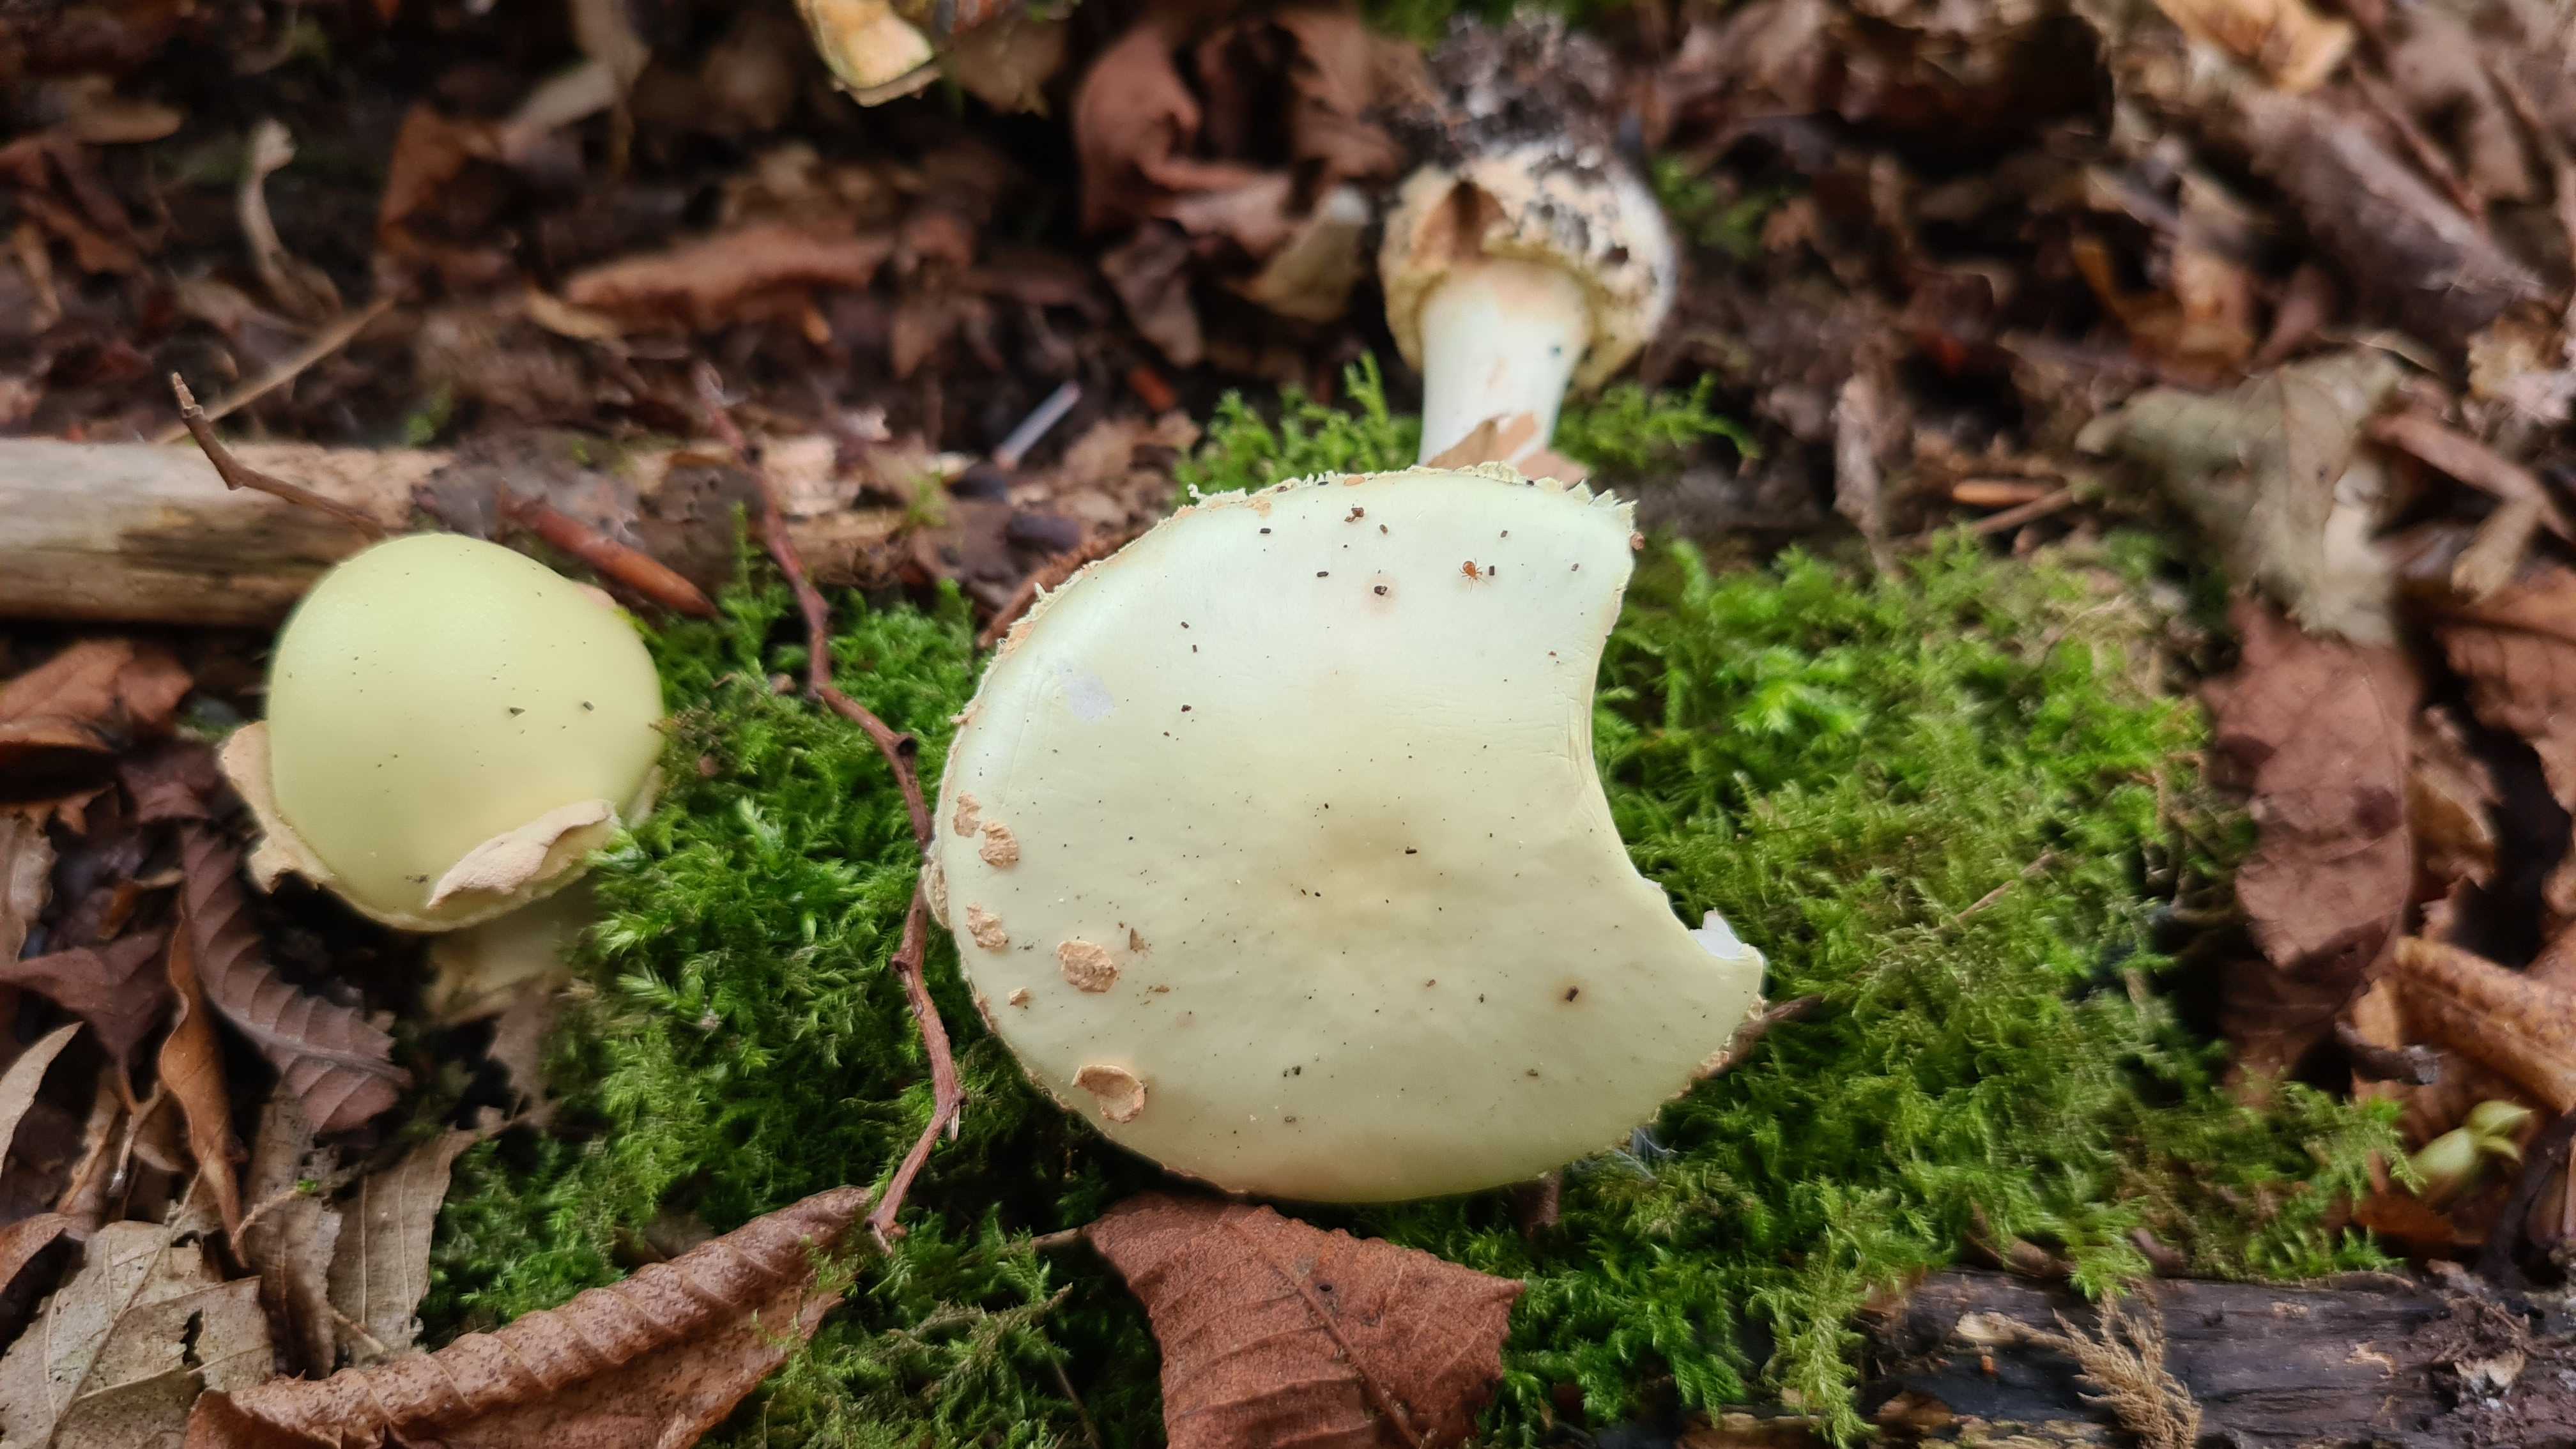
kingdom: Fungi
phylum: Basidiomycota
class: Agaricomycetes
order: Agaricales
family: Amanitaceae
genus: Amanita
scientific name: Amanita citrina
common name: kugleknoldet fluesvamp
